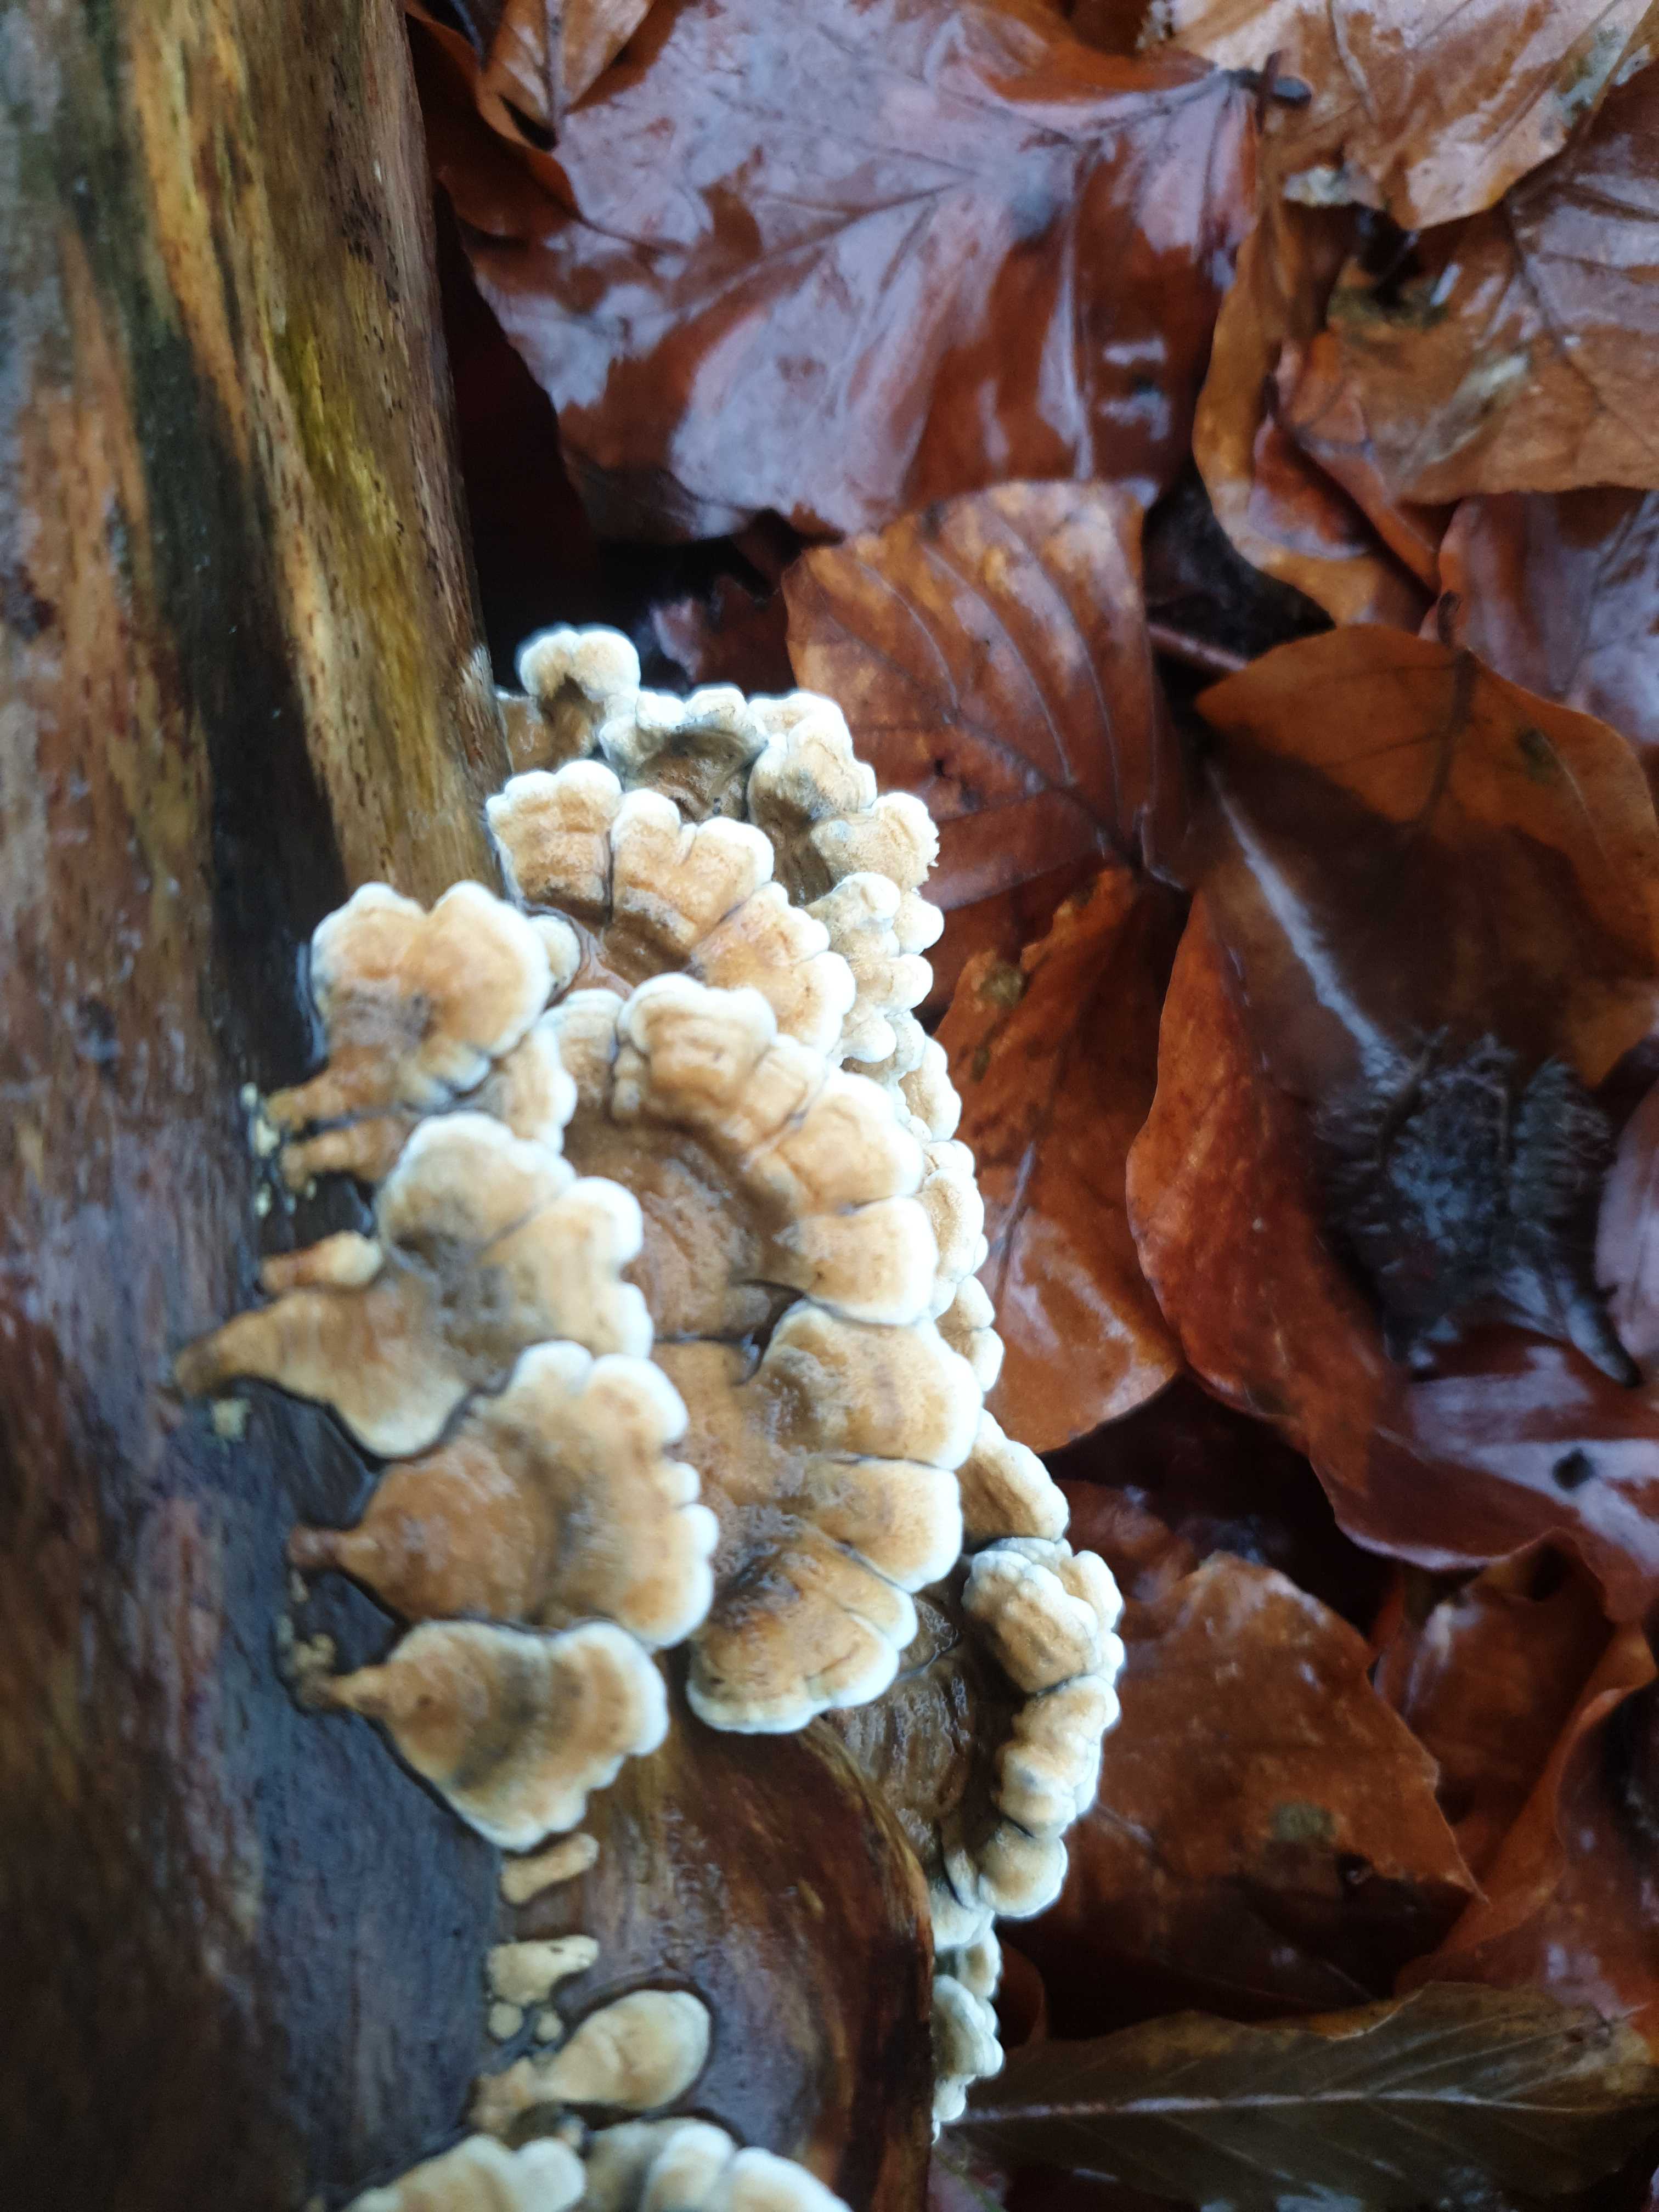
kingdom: Fungi
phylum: Basidiomycota
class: Agaricomycetes
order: Amylocorticiales
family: Amylocorticiaceae
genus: Plicaturopsis
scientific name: Plicaturopsis crispa
